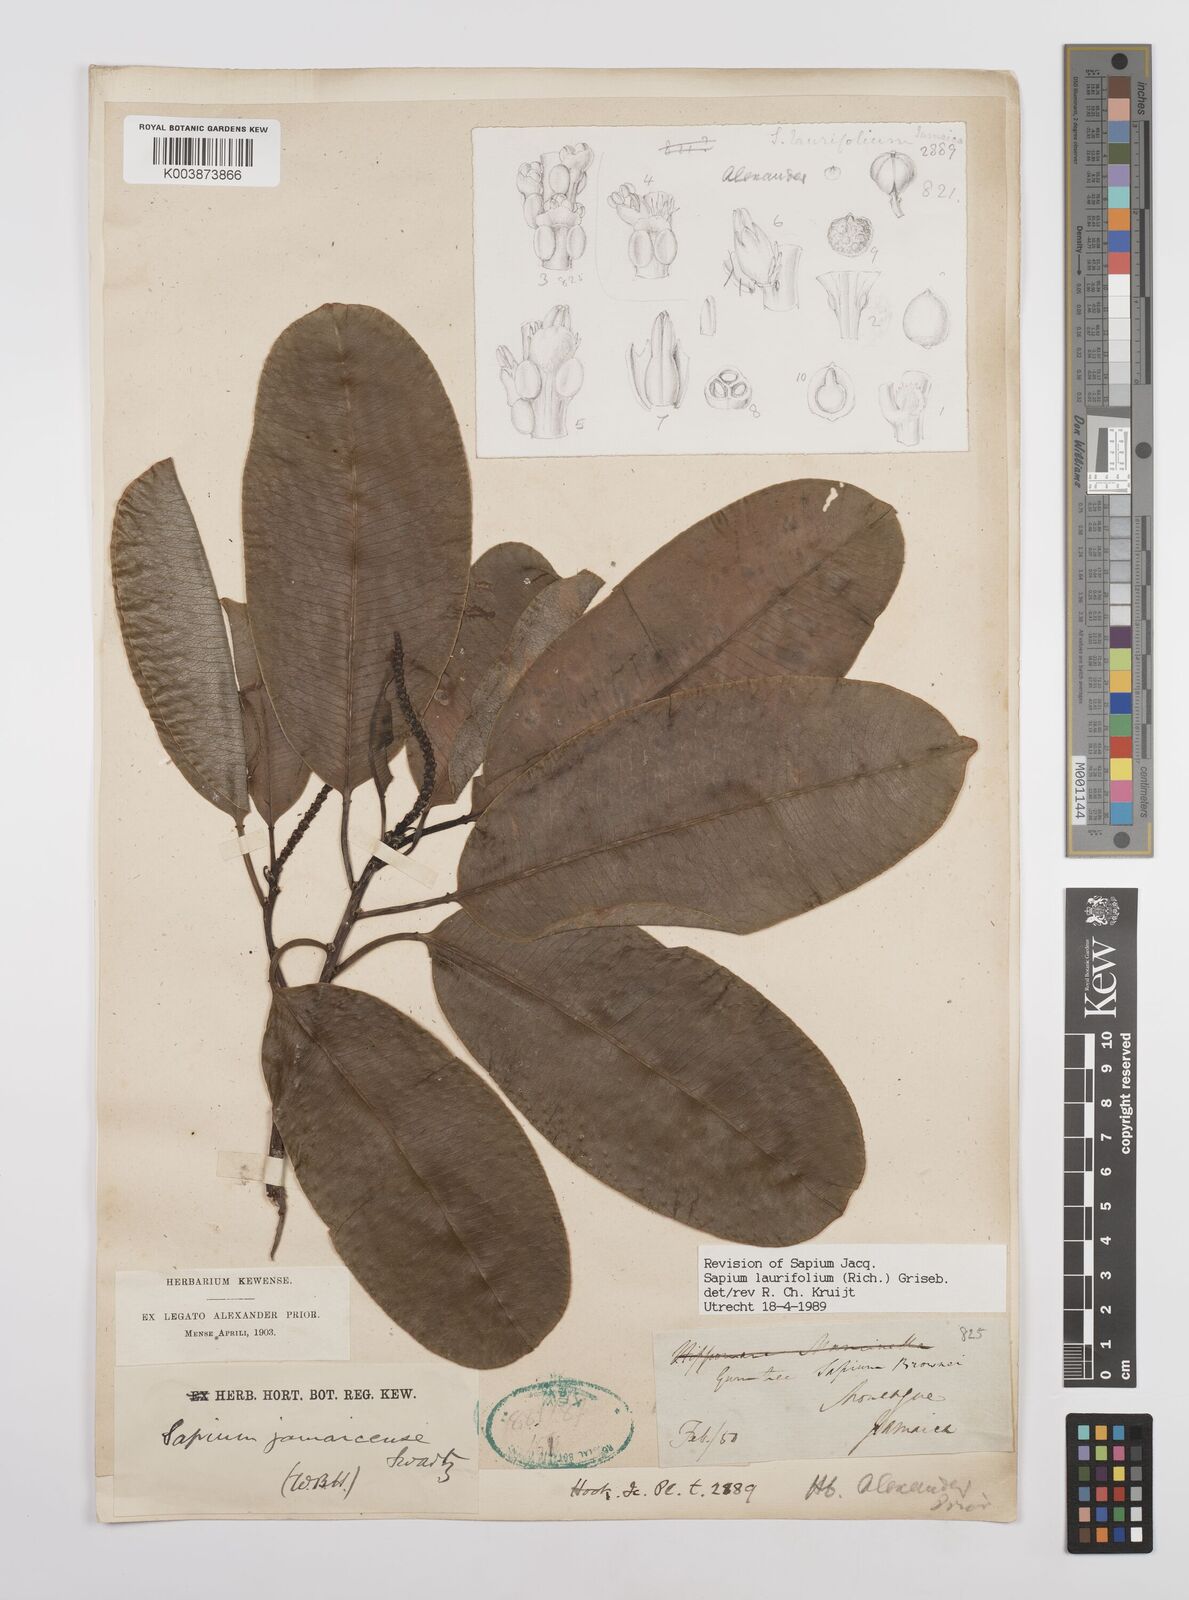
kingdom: Plantae
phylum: Tracheophyta
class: Magnoliopsida
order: Malpighiales
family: Euphorbiaceae
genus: Sapium
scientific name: Sapium glandulosum
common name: Milktree
